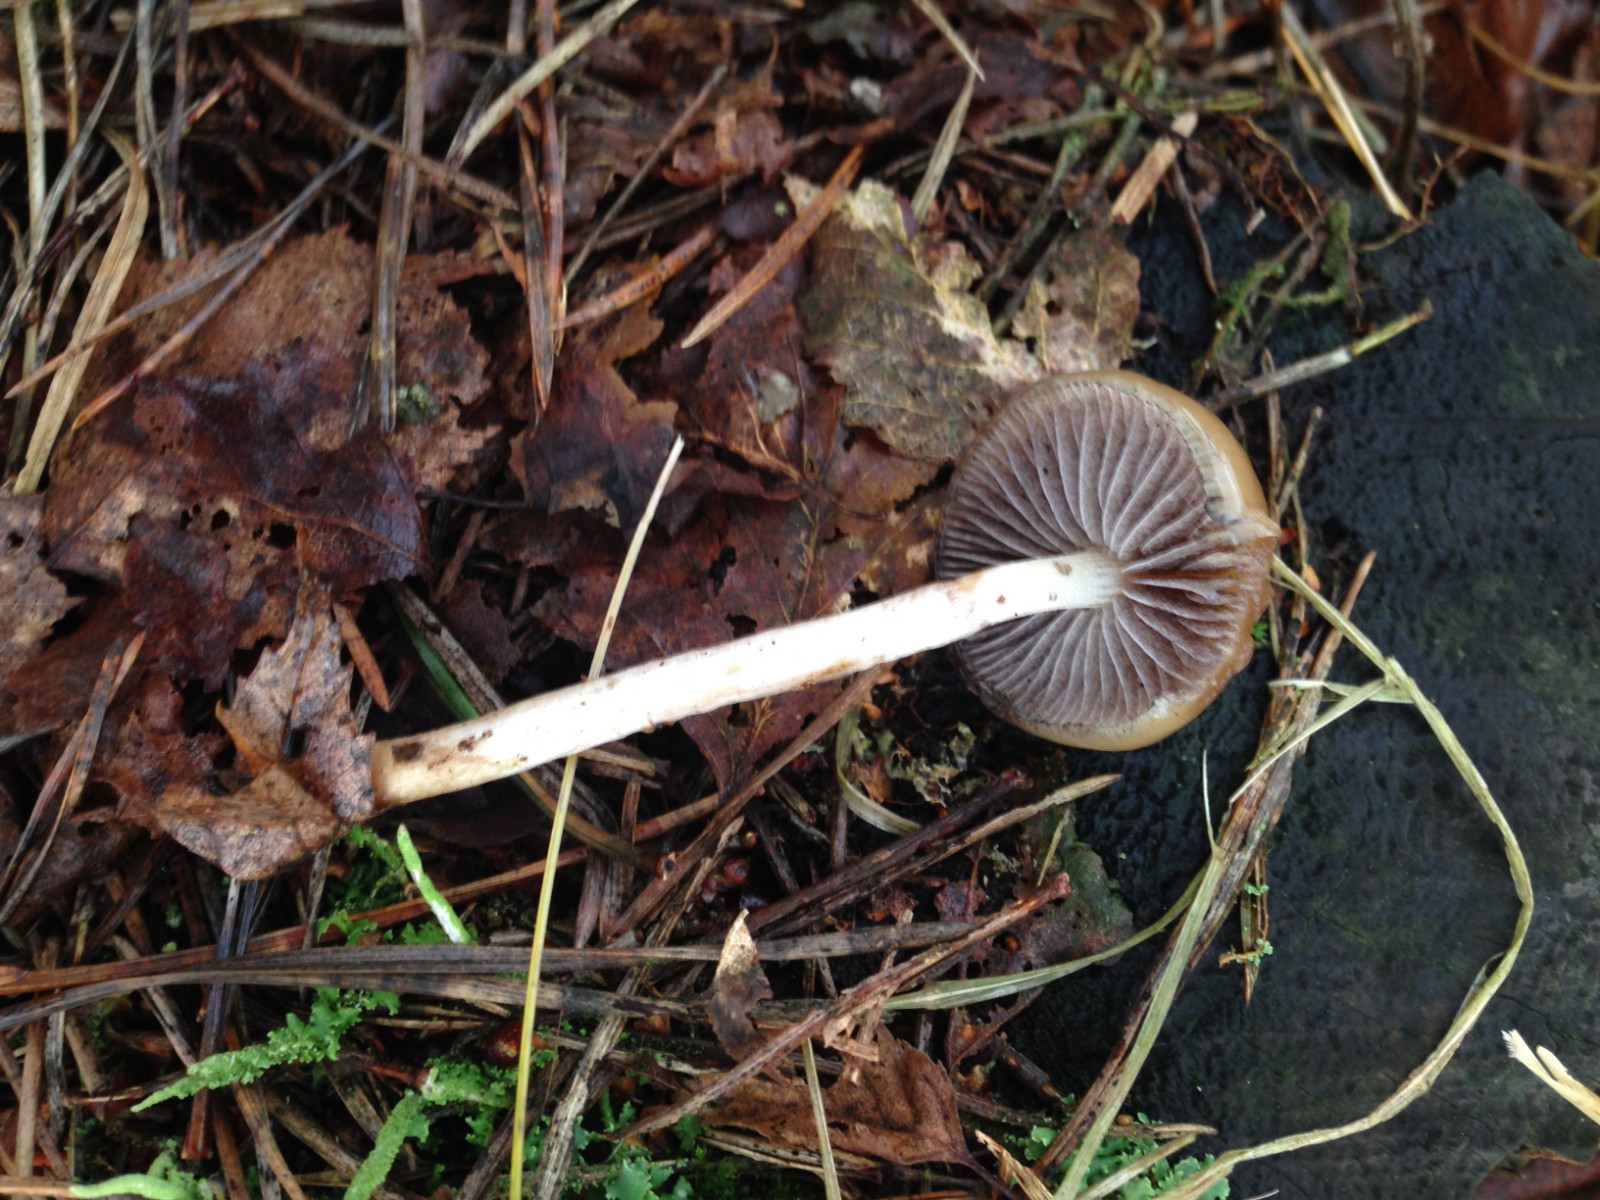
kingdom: Fungi
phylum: Basidiomycota
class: Agaricomycetes
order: Agaricales
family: Strophariaceae
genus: Protostropharia
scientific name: Protostropharia semiglobata
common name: halvkugleformet bredblad
